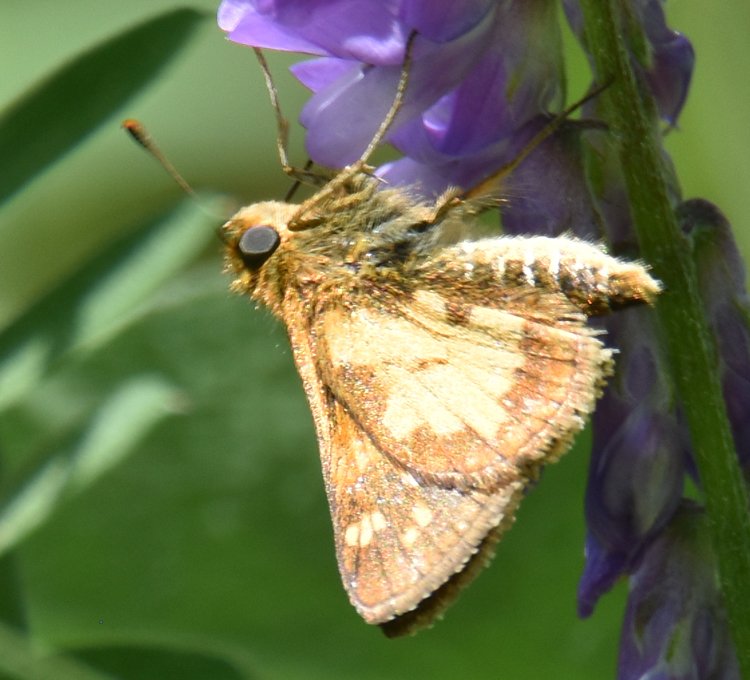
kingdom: Animalia
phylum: Arthropoda
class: Insecta
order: Lepidoptera
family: Hesperiidae
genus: Polites
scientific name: Polites coras
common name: Peck's Skipper
